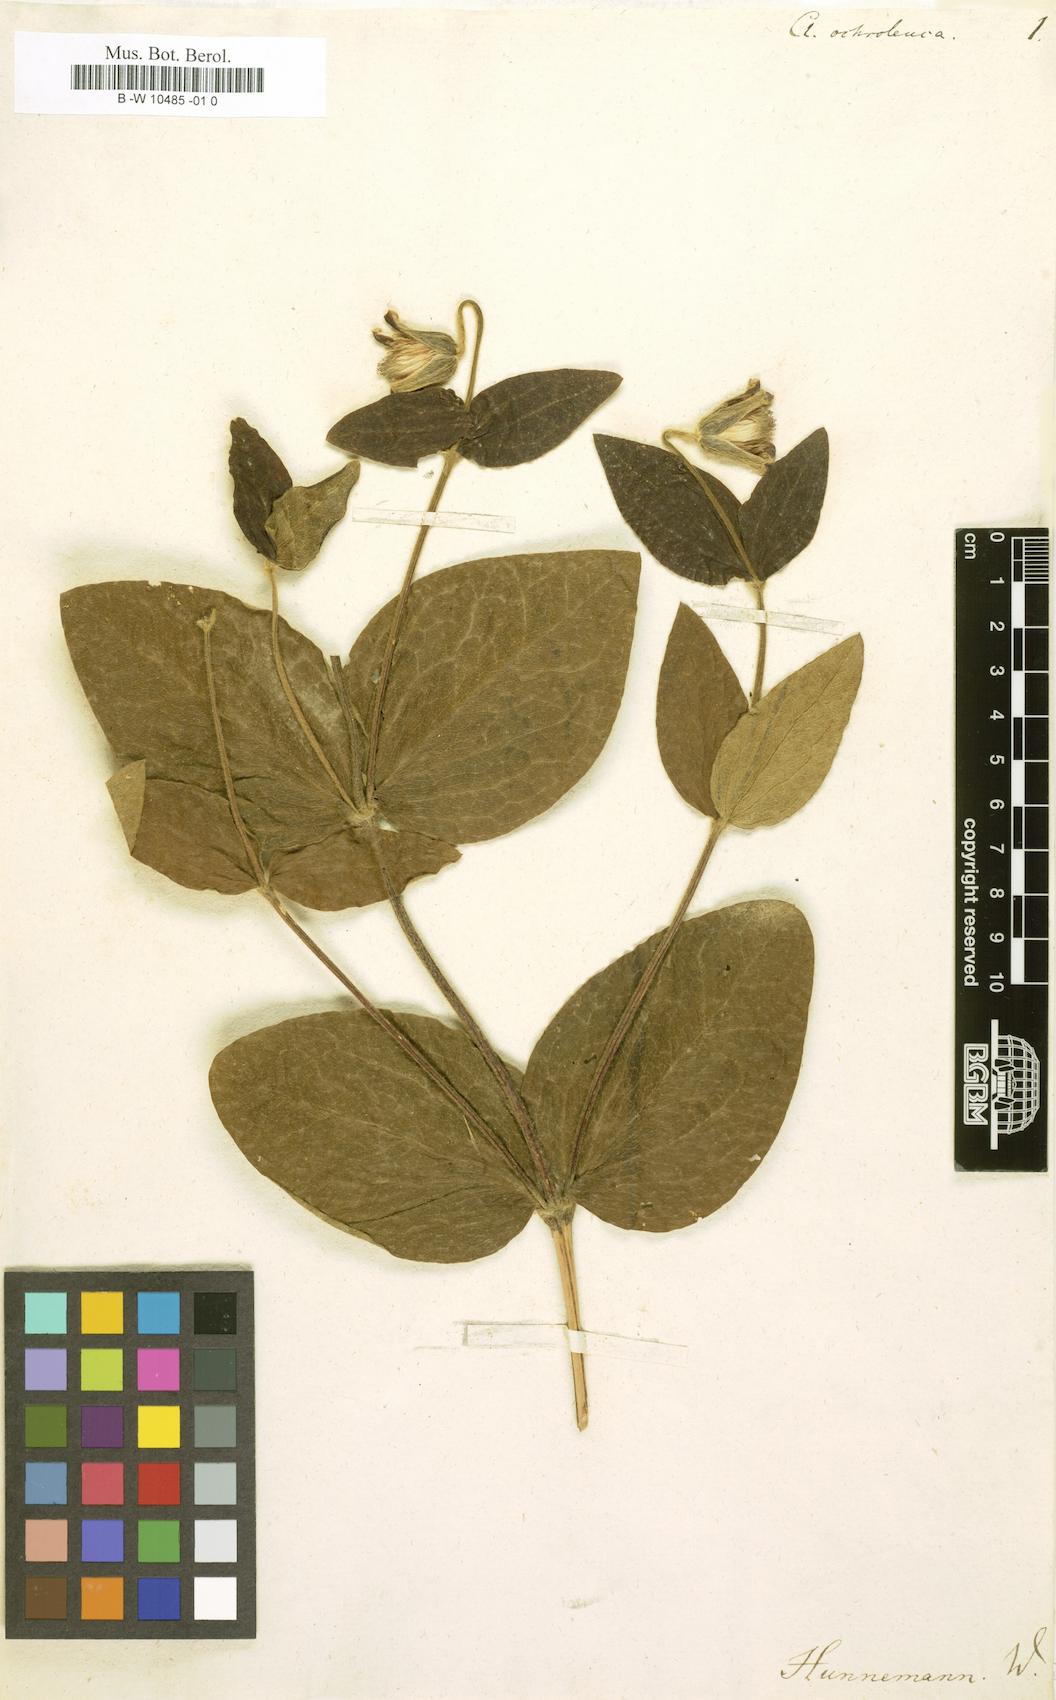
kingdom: Plantae
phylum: Tracheophyta
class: Magnoliopsida
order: Ranunculales
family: Ranunculaceae
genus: Clematis
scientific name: Clematis ochroleuca
